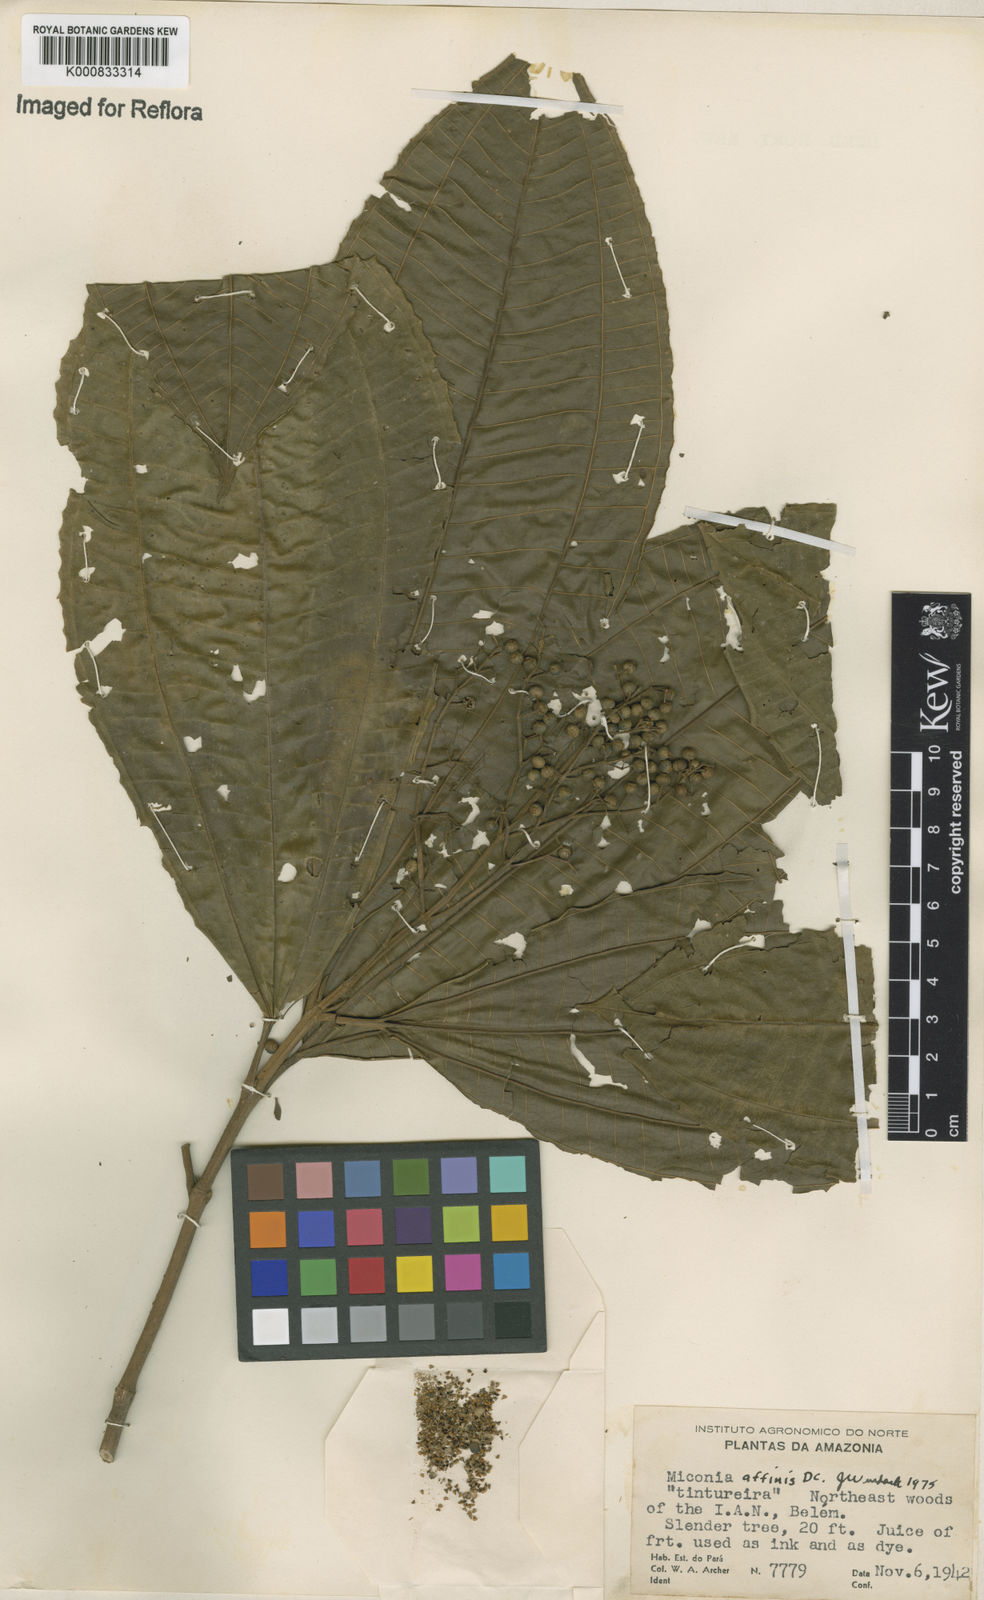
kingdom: Plantae
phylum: Tracheophyta
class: Magnoliopsida
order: Myrtales
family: Melastomataceae
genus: Miconia
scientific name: Miconia affinis
